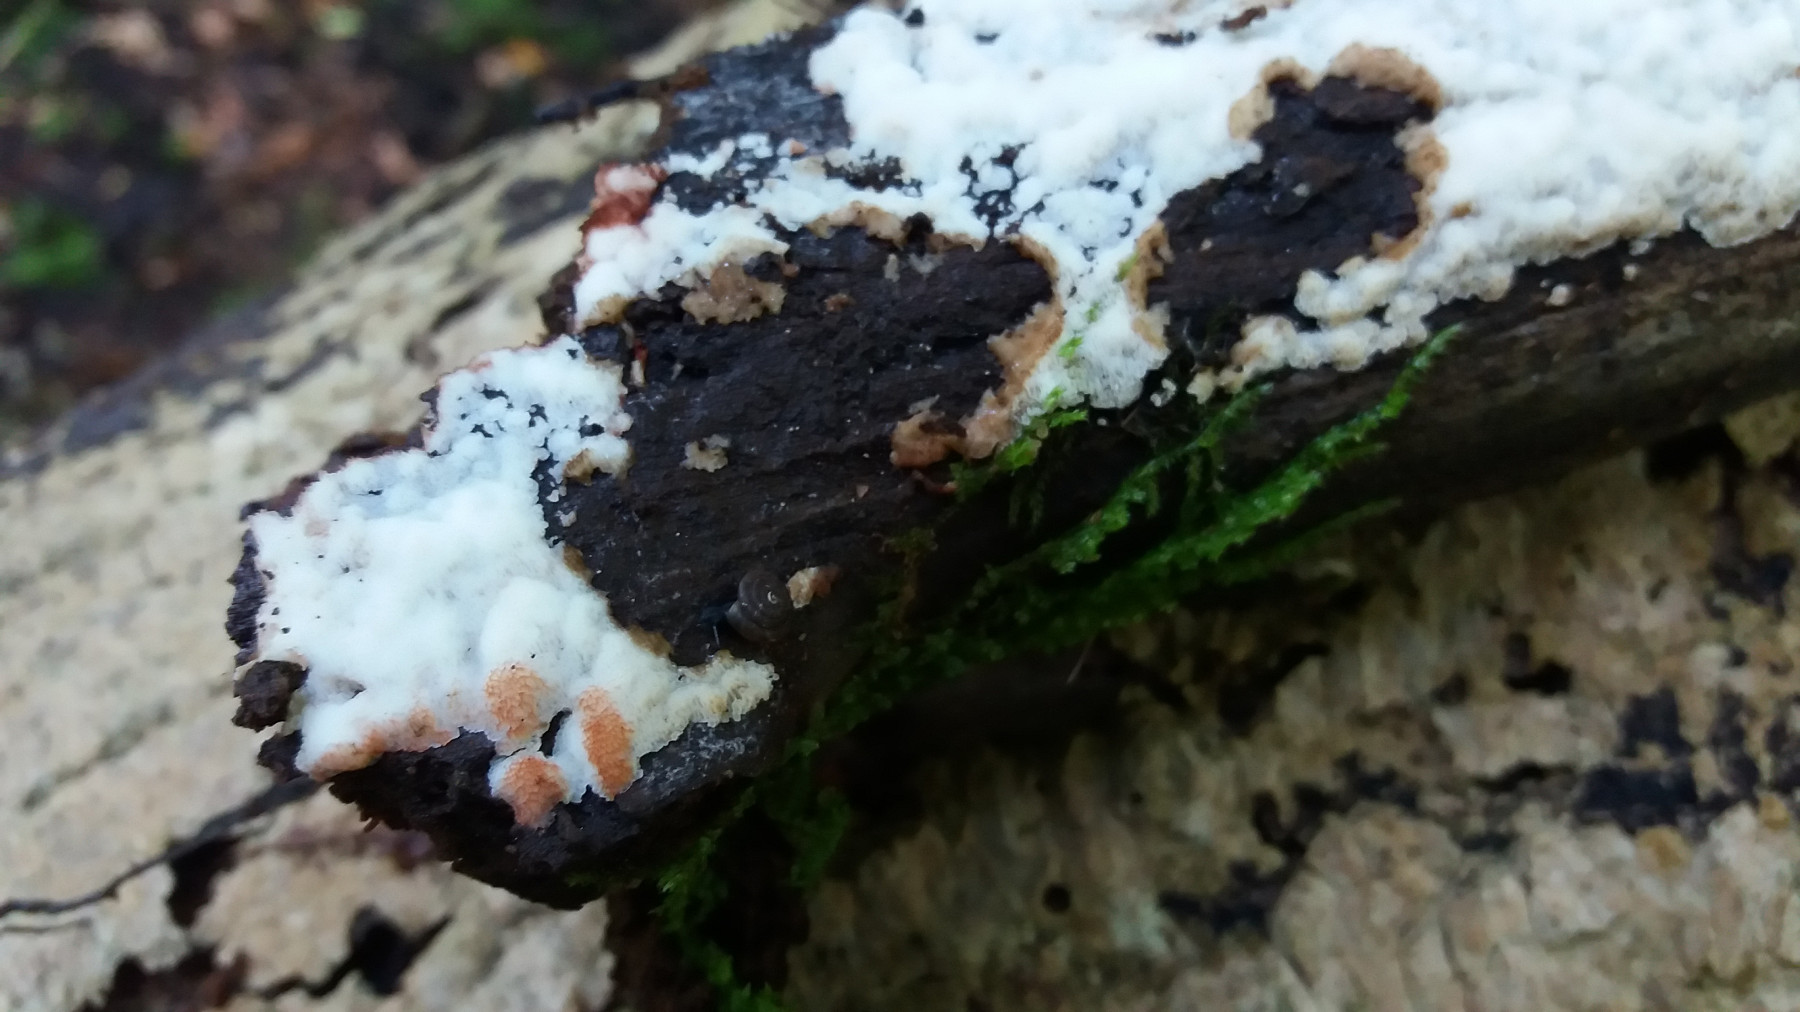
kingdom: Fungi
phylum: Basidiomycota
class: Agaricomycetes
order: Polyporales
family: Meripilaceae
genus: Rigidoporus
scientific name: Rigidoporus sanguinolentus
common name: blod-skorpeporesvamp
